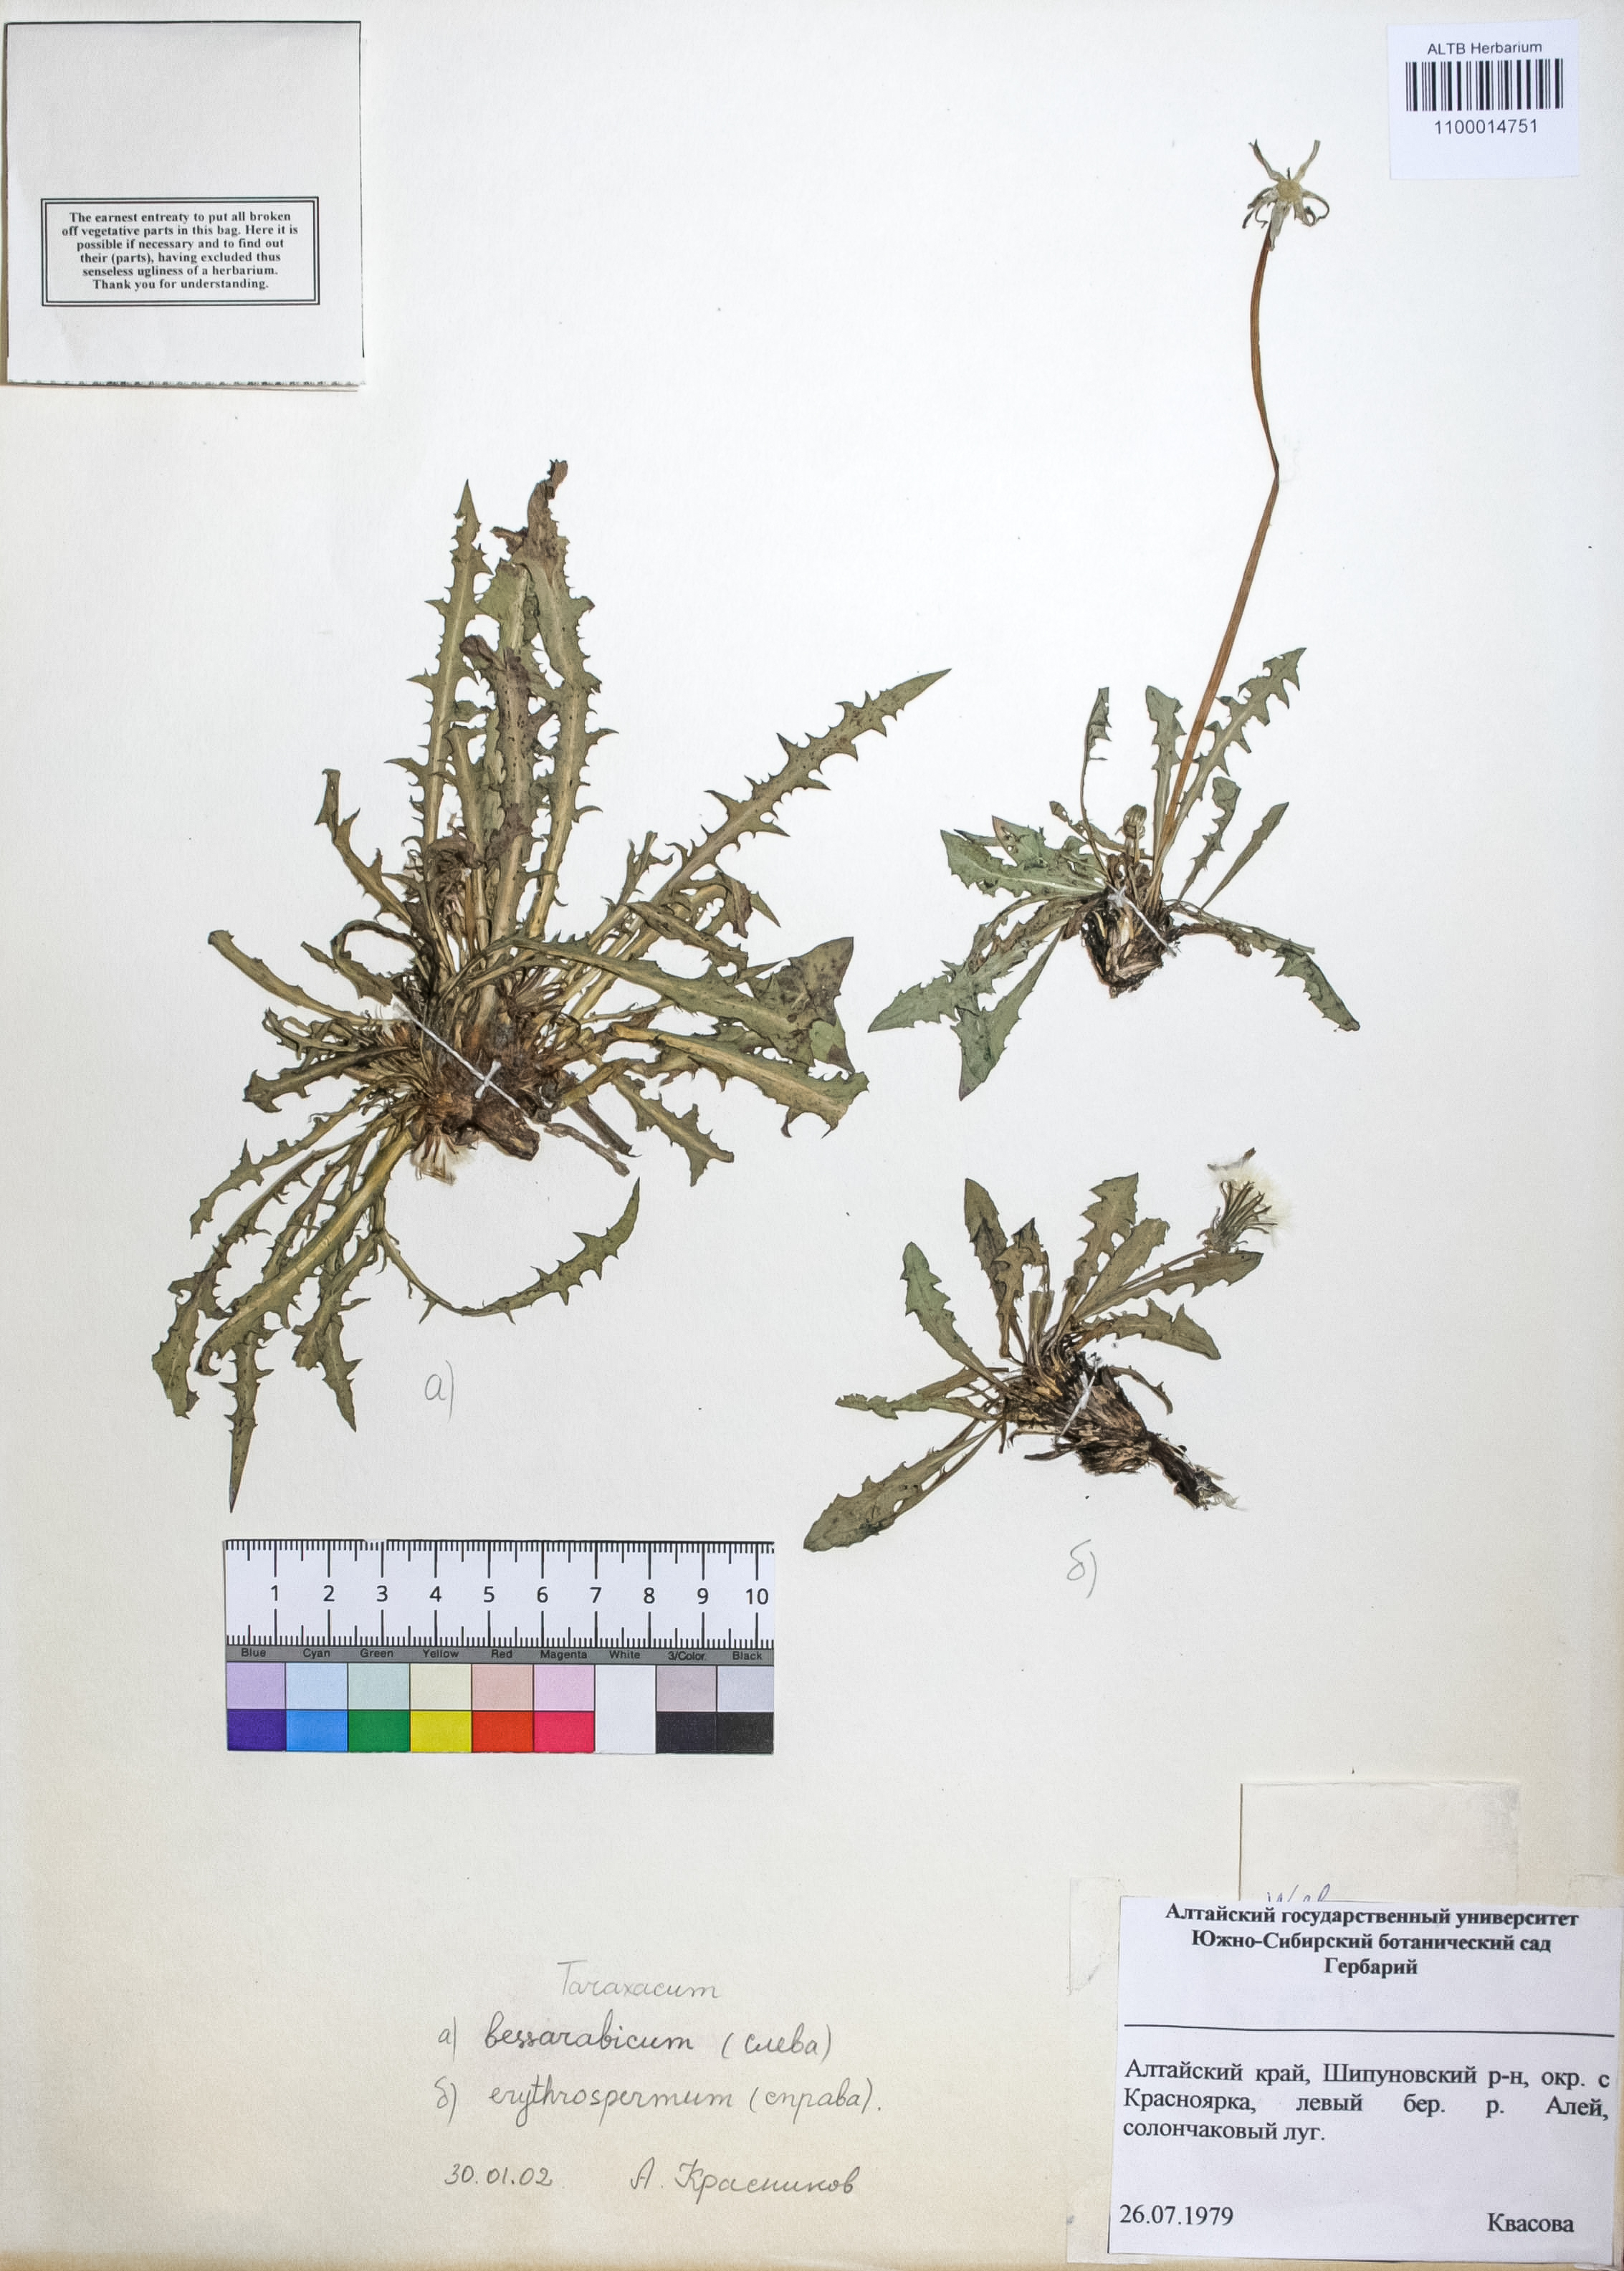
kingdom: Plantae
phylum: Tracheophyta
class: Magnoliopsida
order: Asterales
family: Asteraceae
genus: Taraxacum
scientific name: Taraxacum bessarabicum
